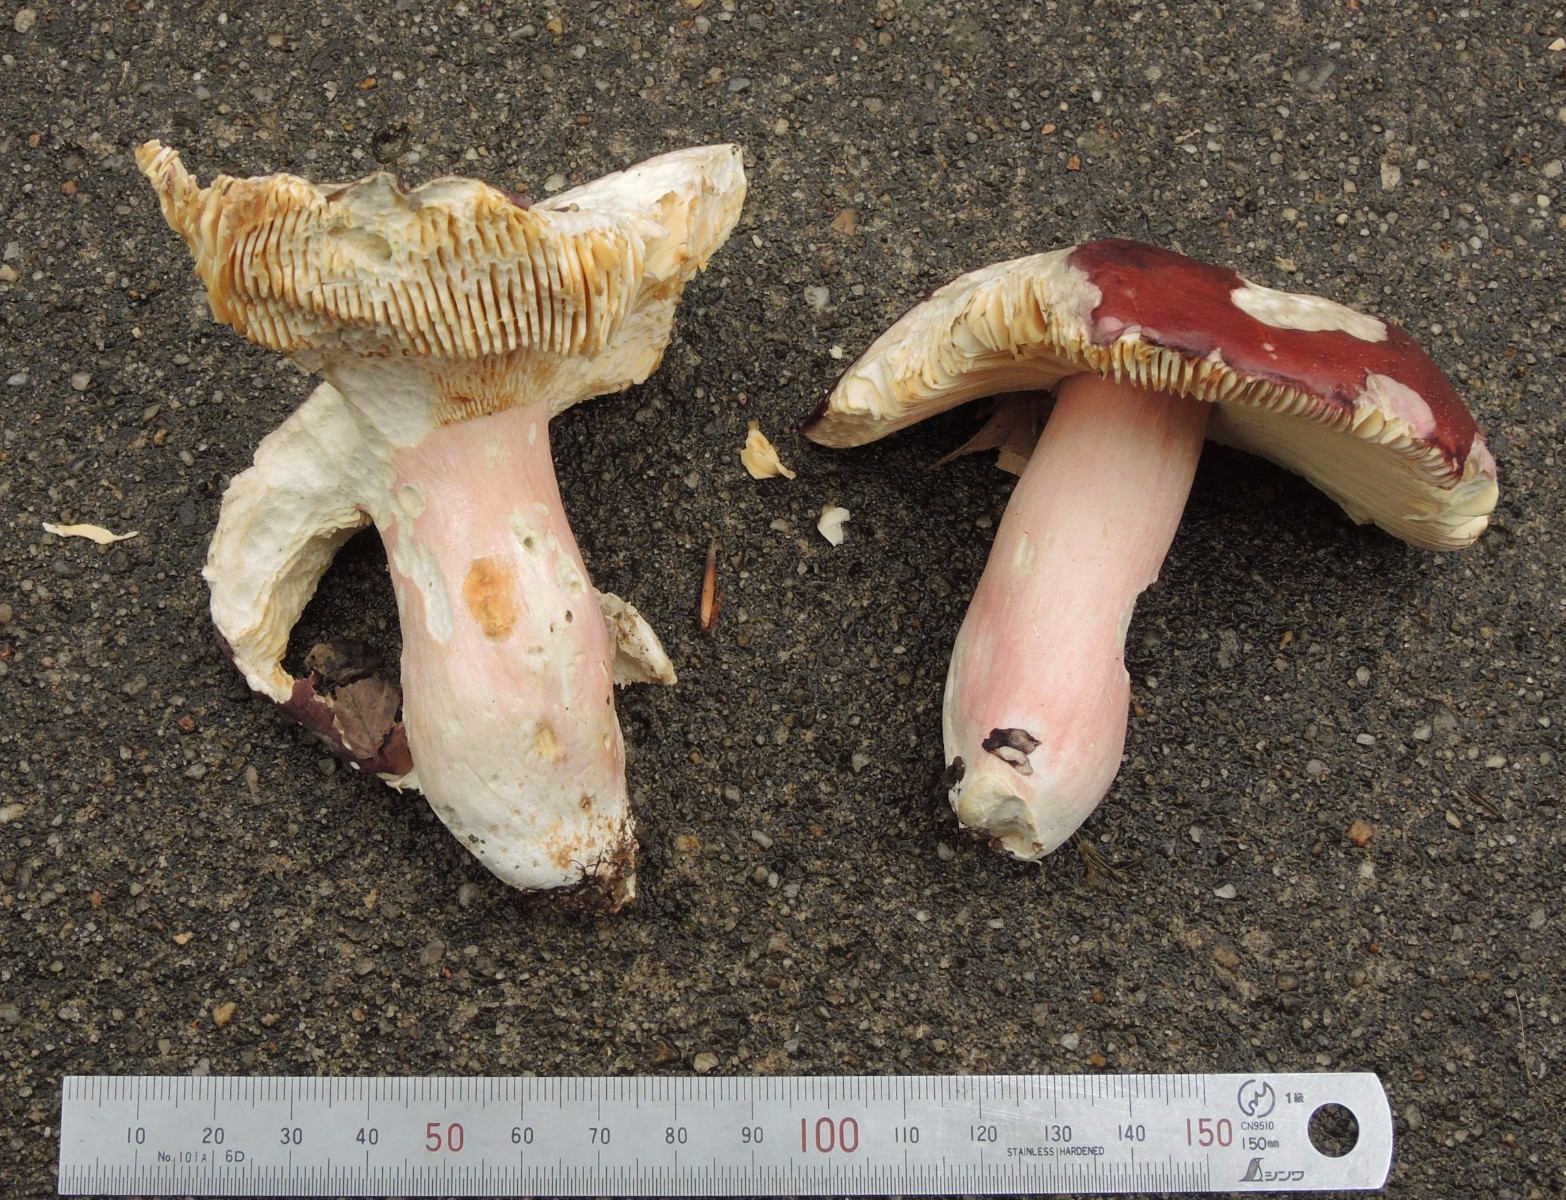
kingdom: Fungi
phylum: Basidiomycota
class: Agaricomycetes
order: Russulales
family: Russulaceae
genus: Russula
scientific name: Russula olivacea
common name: stor skørhat
